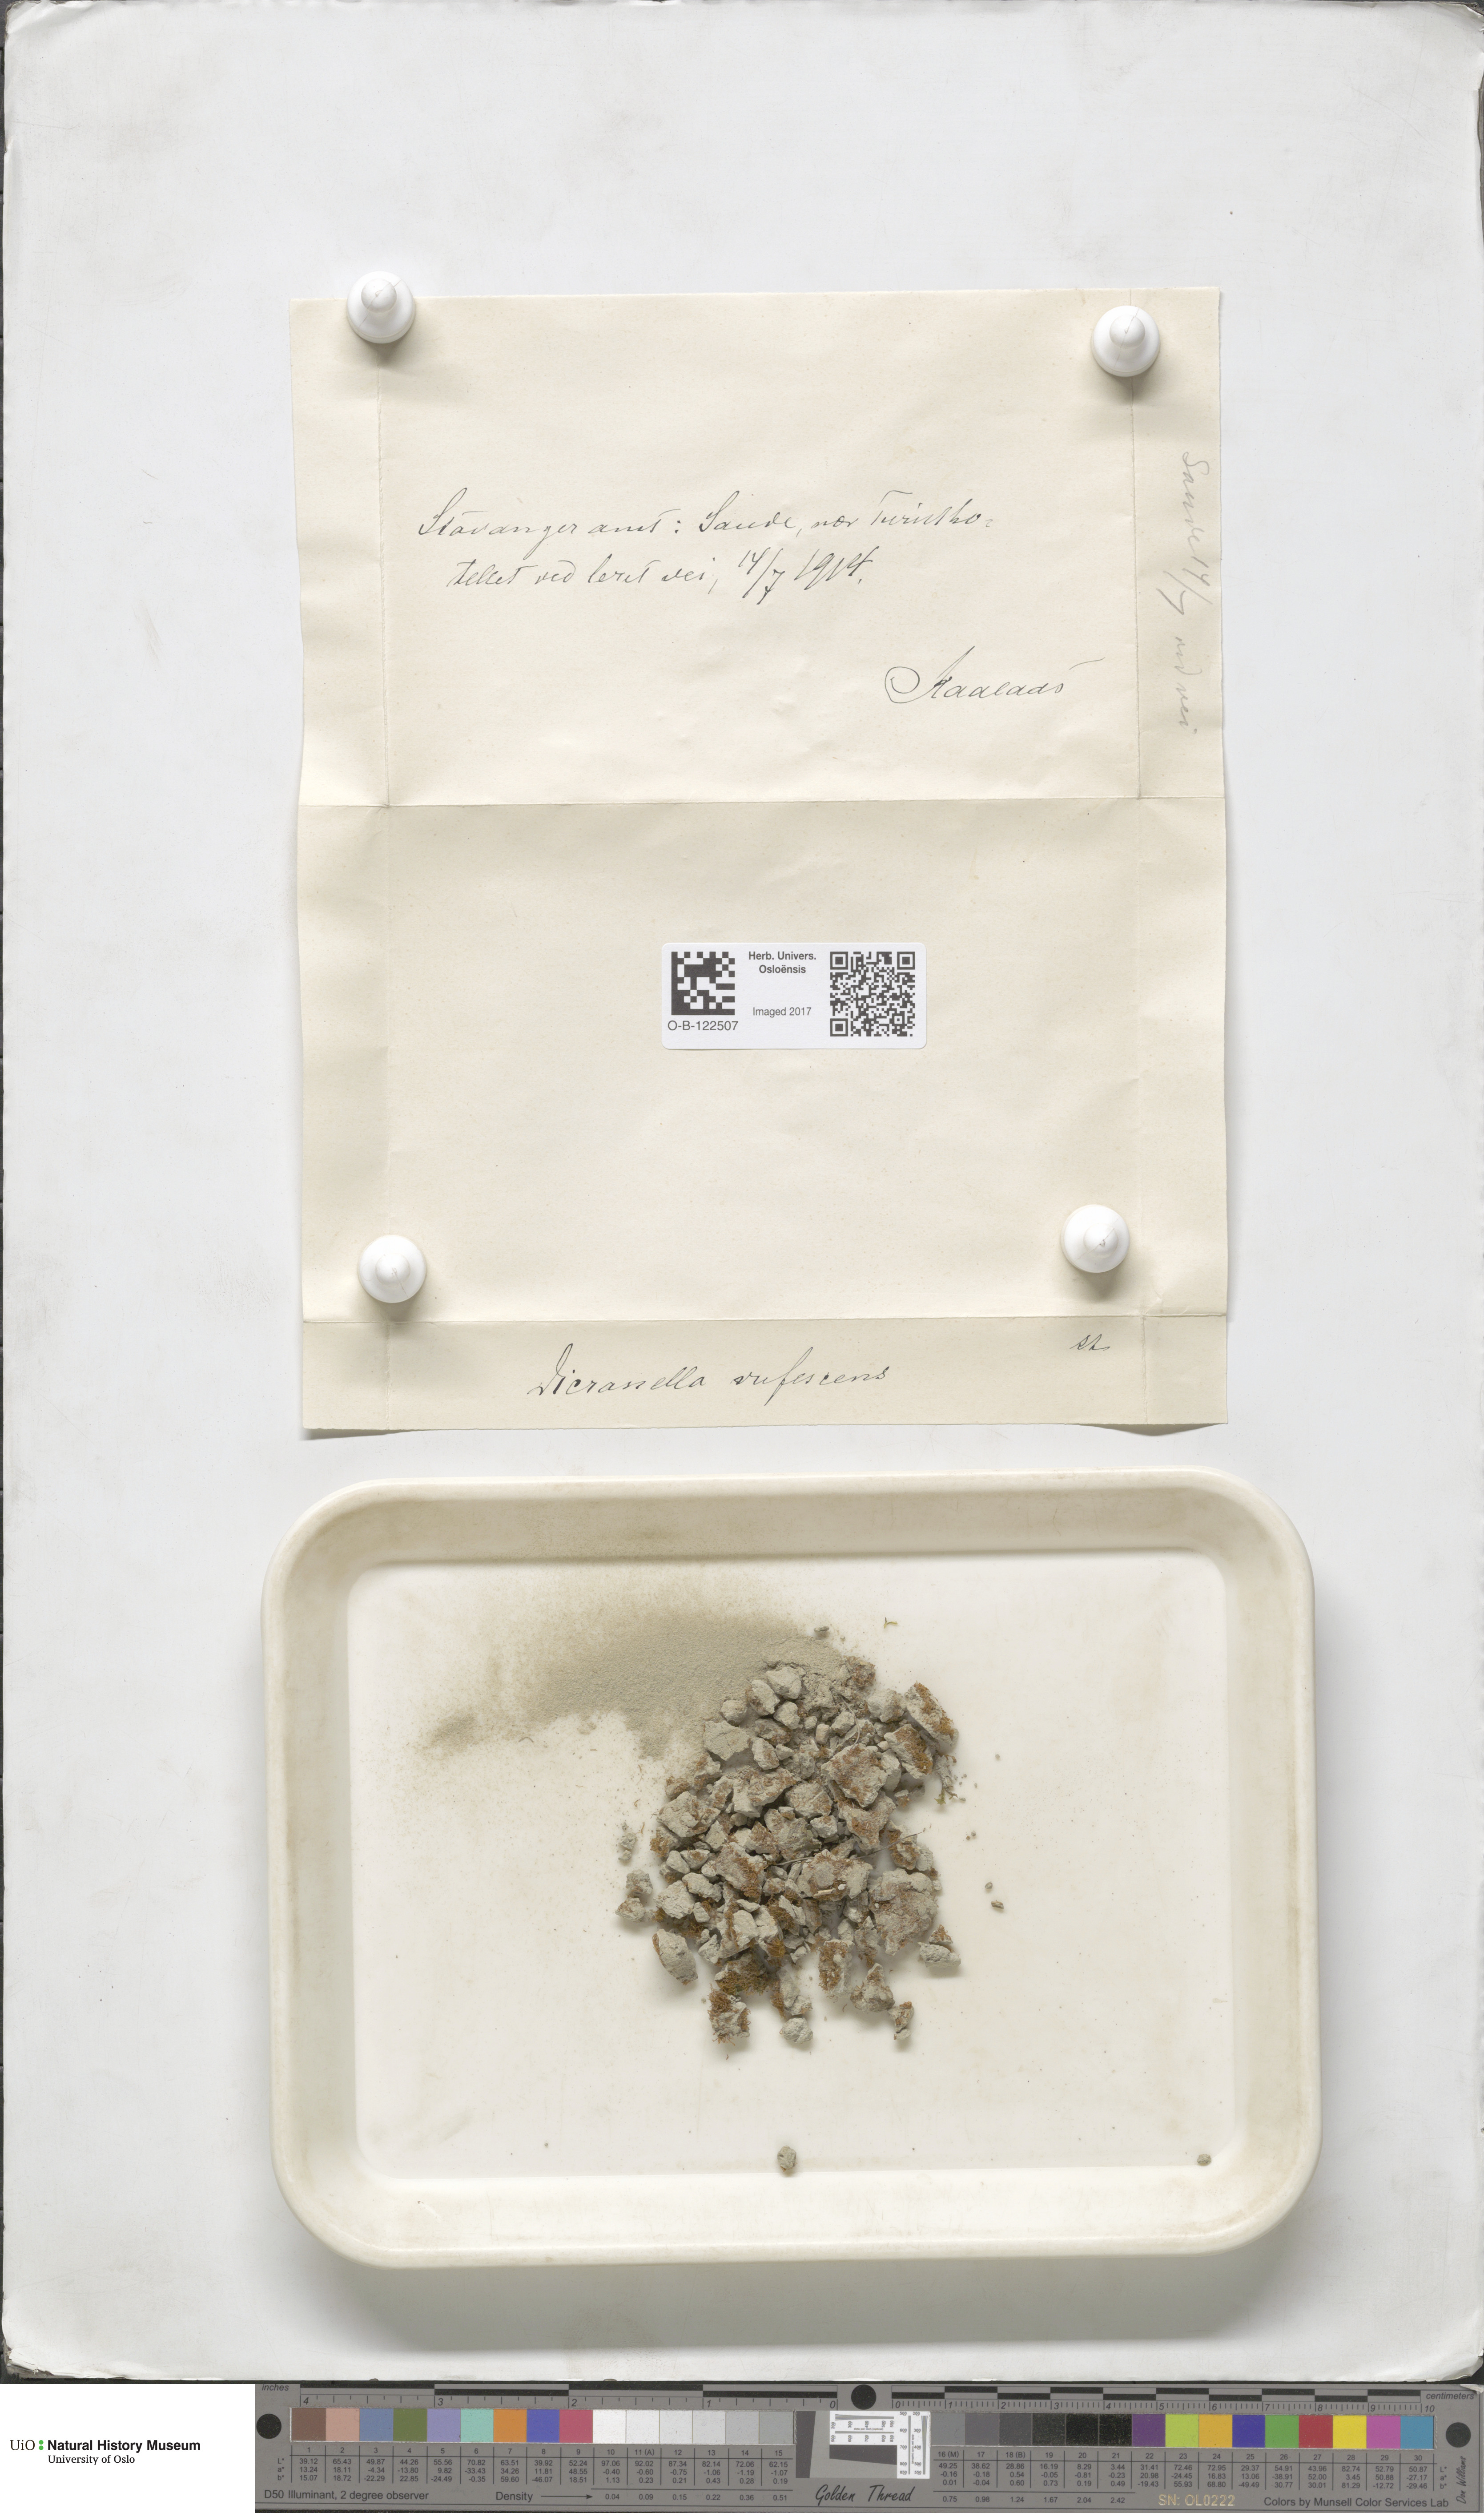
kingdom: Plantae
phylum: Bryophyta
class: Bryopsida
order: Dicranales
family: Dicranellaceae
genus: Dicranella
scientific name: Dicranella rufescens
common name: Red forklet moss
